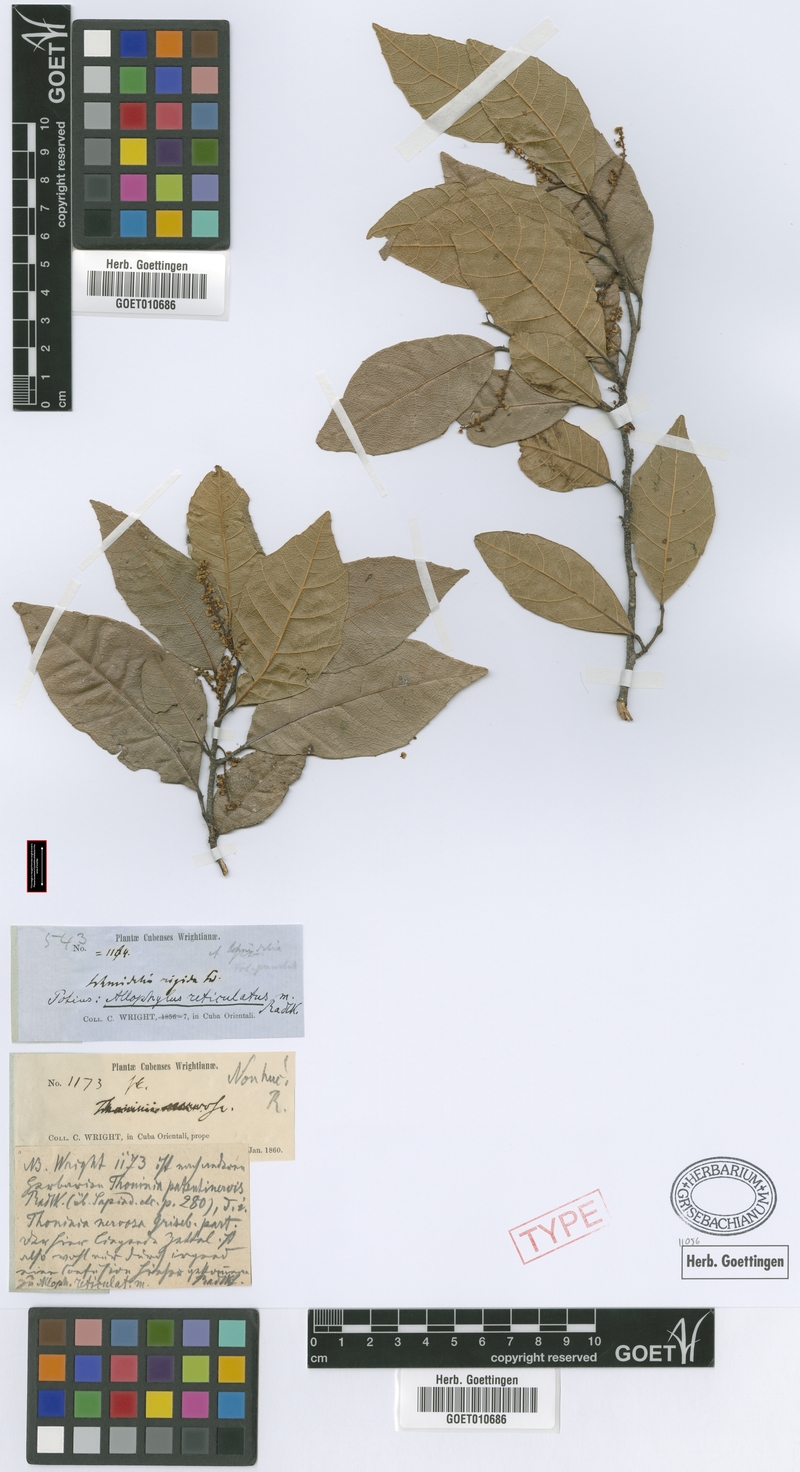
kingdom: Plantae
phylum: Tracheophyta
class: Magnoliopsida
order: Sapindales
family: Sapindaceae
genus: Allophylus
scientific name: Allophylus reticulatus
